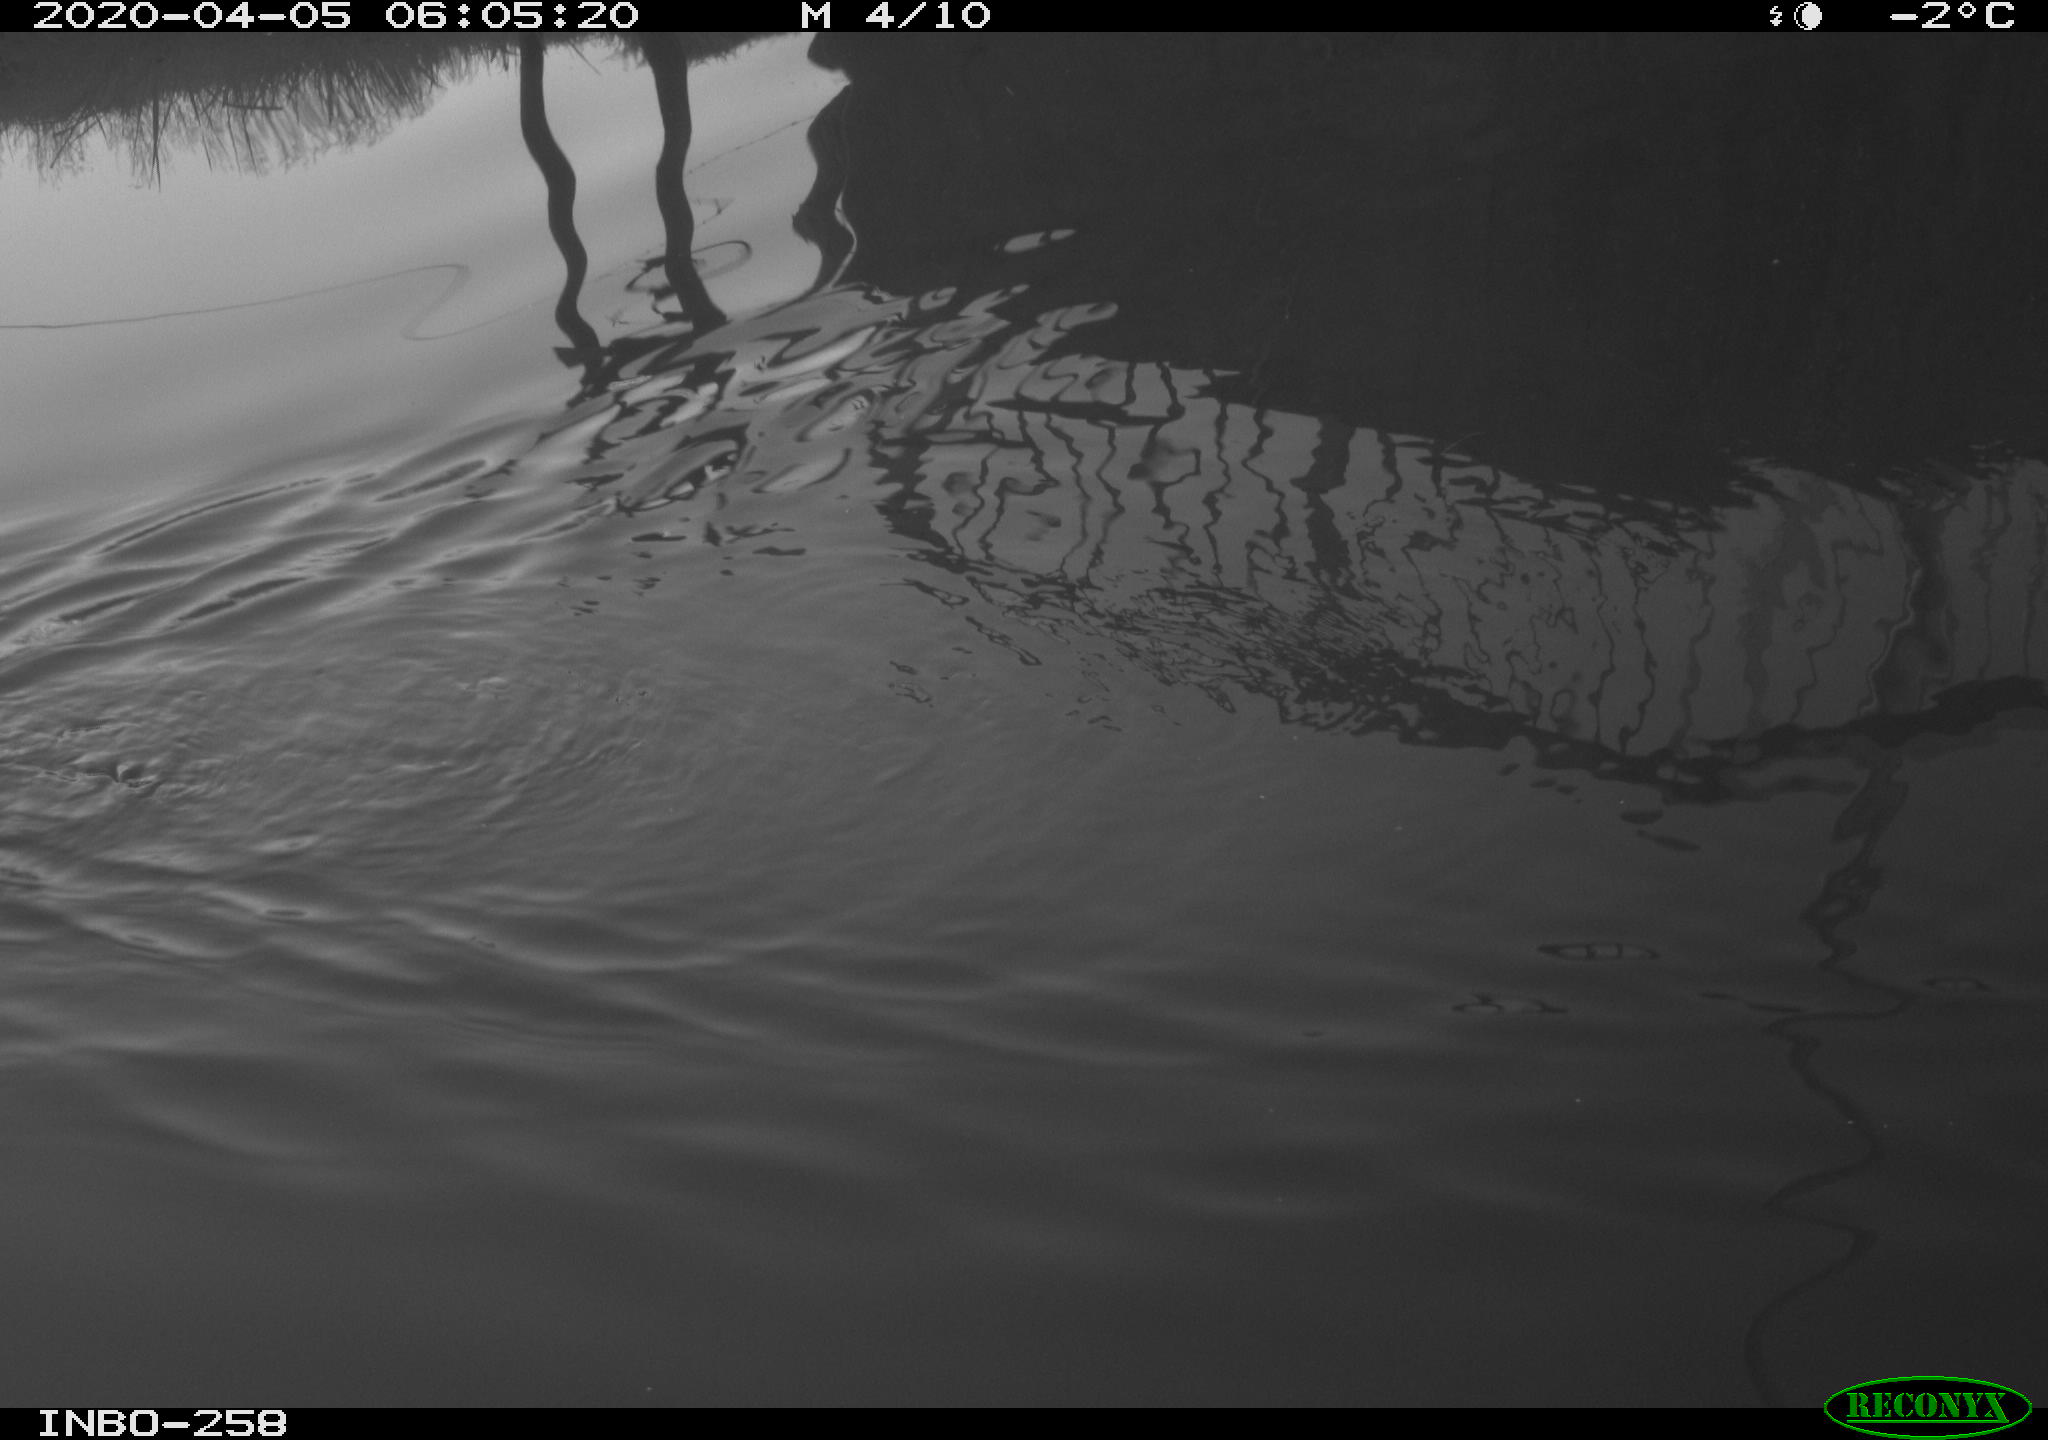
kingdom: Animalia
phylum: Chordata
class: Aves
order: Anseriformes
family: Anatidae
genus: Anas
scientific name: Anas platyrhynchos
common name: Mallard
